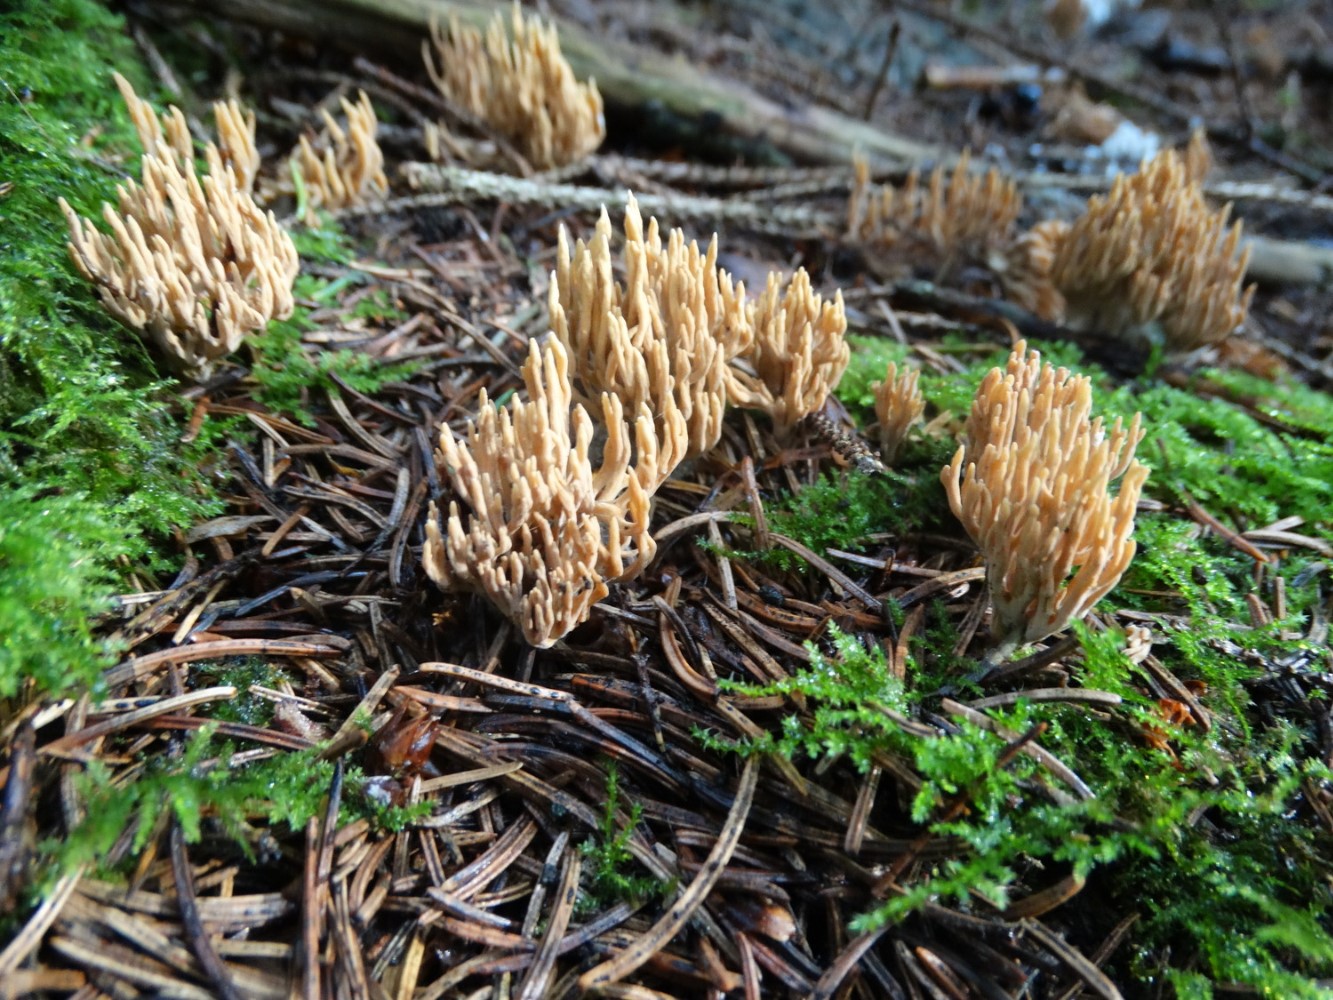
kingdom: Fungi
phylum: Basidiomycota
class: Agaricomycetes
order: Gomphales
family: Gomphaceae
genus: Phaeoclavulina
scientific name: Phaeoclavulina eumorpha
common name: gran-koralsvamp
